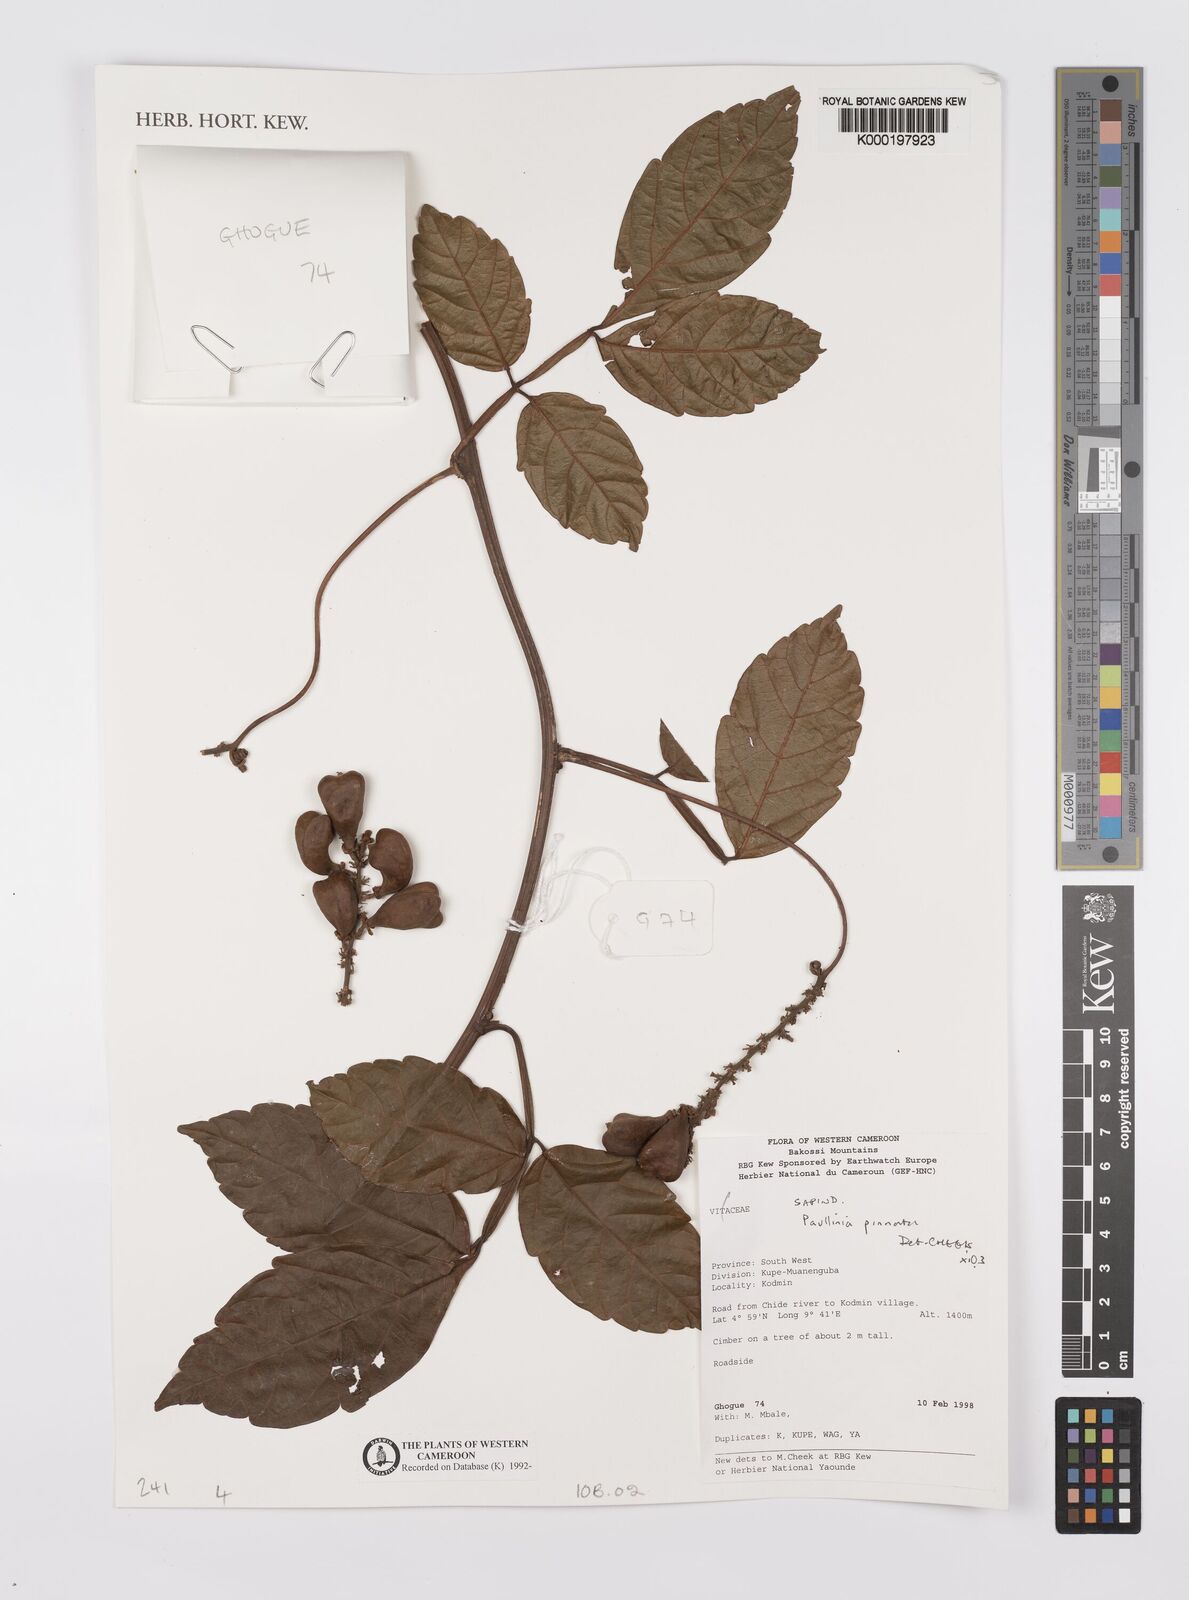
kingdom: Plantae
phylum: Tracheophyta
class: Magnoliopsida
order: Sapindales
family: Sapindaceae
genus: Paullinia
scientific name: Paullinia pinnata
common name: Barbasco
